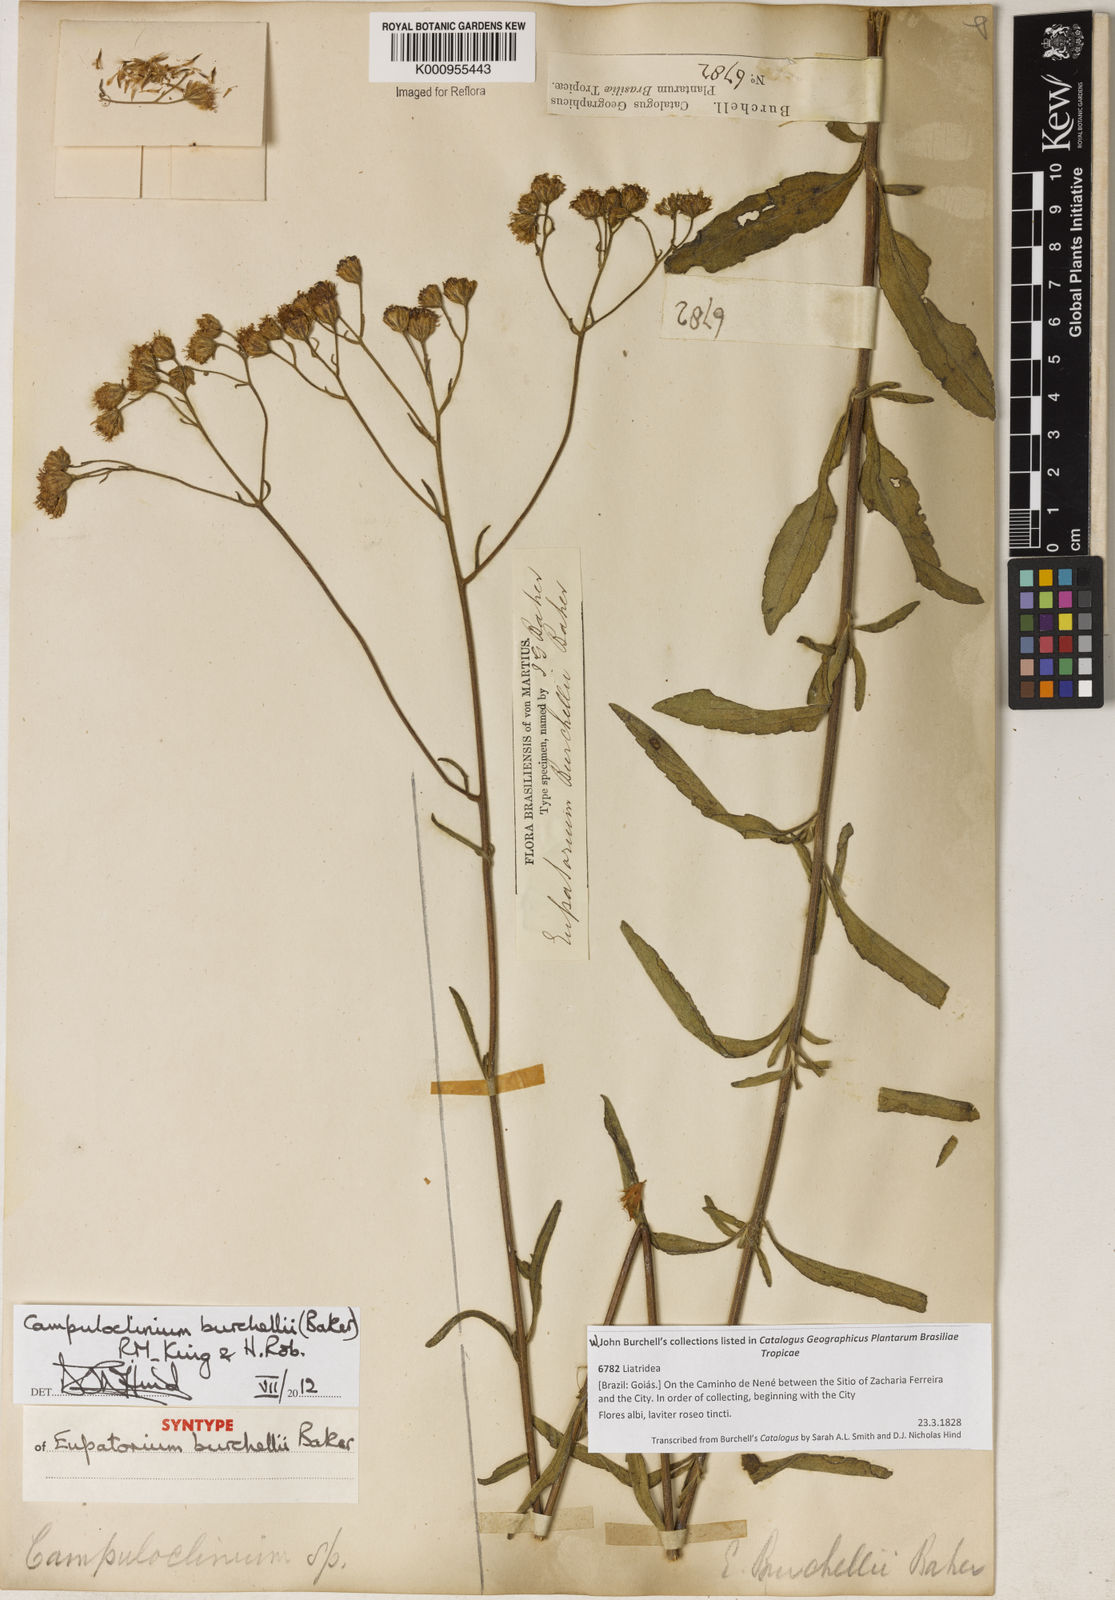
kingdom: Plantae
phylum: Tracheophyta
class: Magnoliopsida
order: Asterales
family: Asteraceae
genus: Campuloclinium
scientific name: Campuloclinium burchellii
